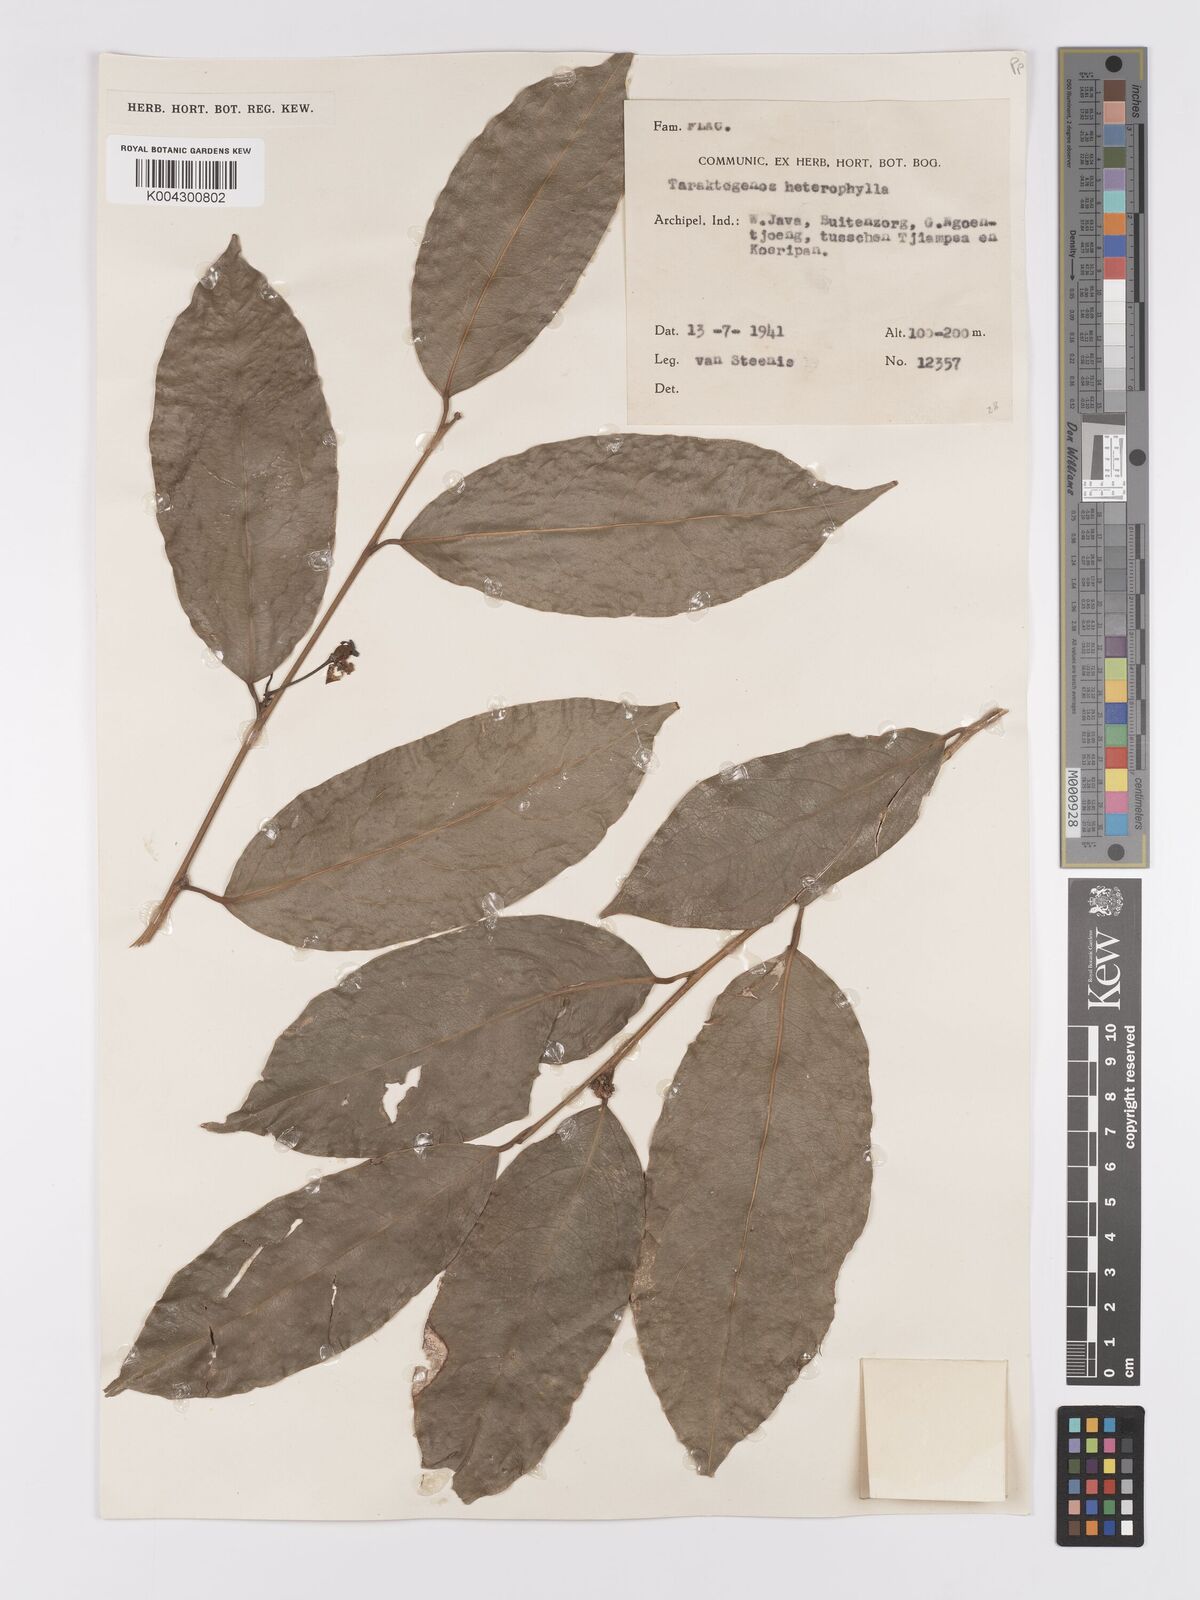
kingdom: Plantae
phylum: Tracheophyta
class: Magnoliopsida
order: Malpighiales
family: Achariaceae
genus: Hydnocarpus
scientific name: Hydnocarpus heterophyllus
